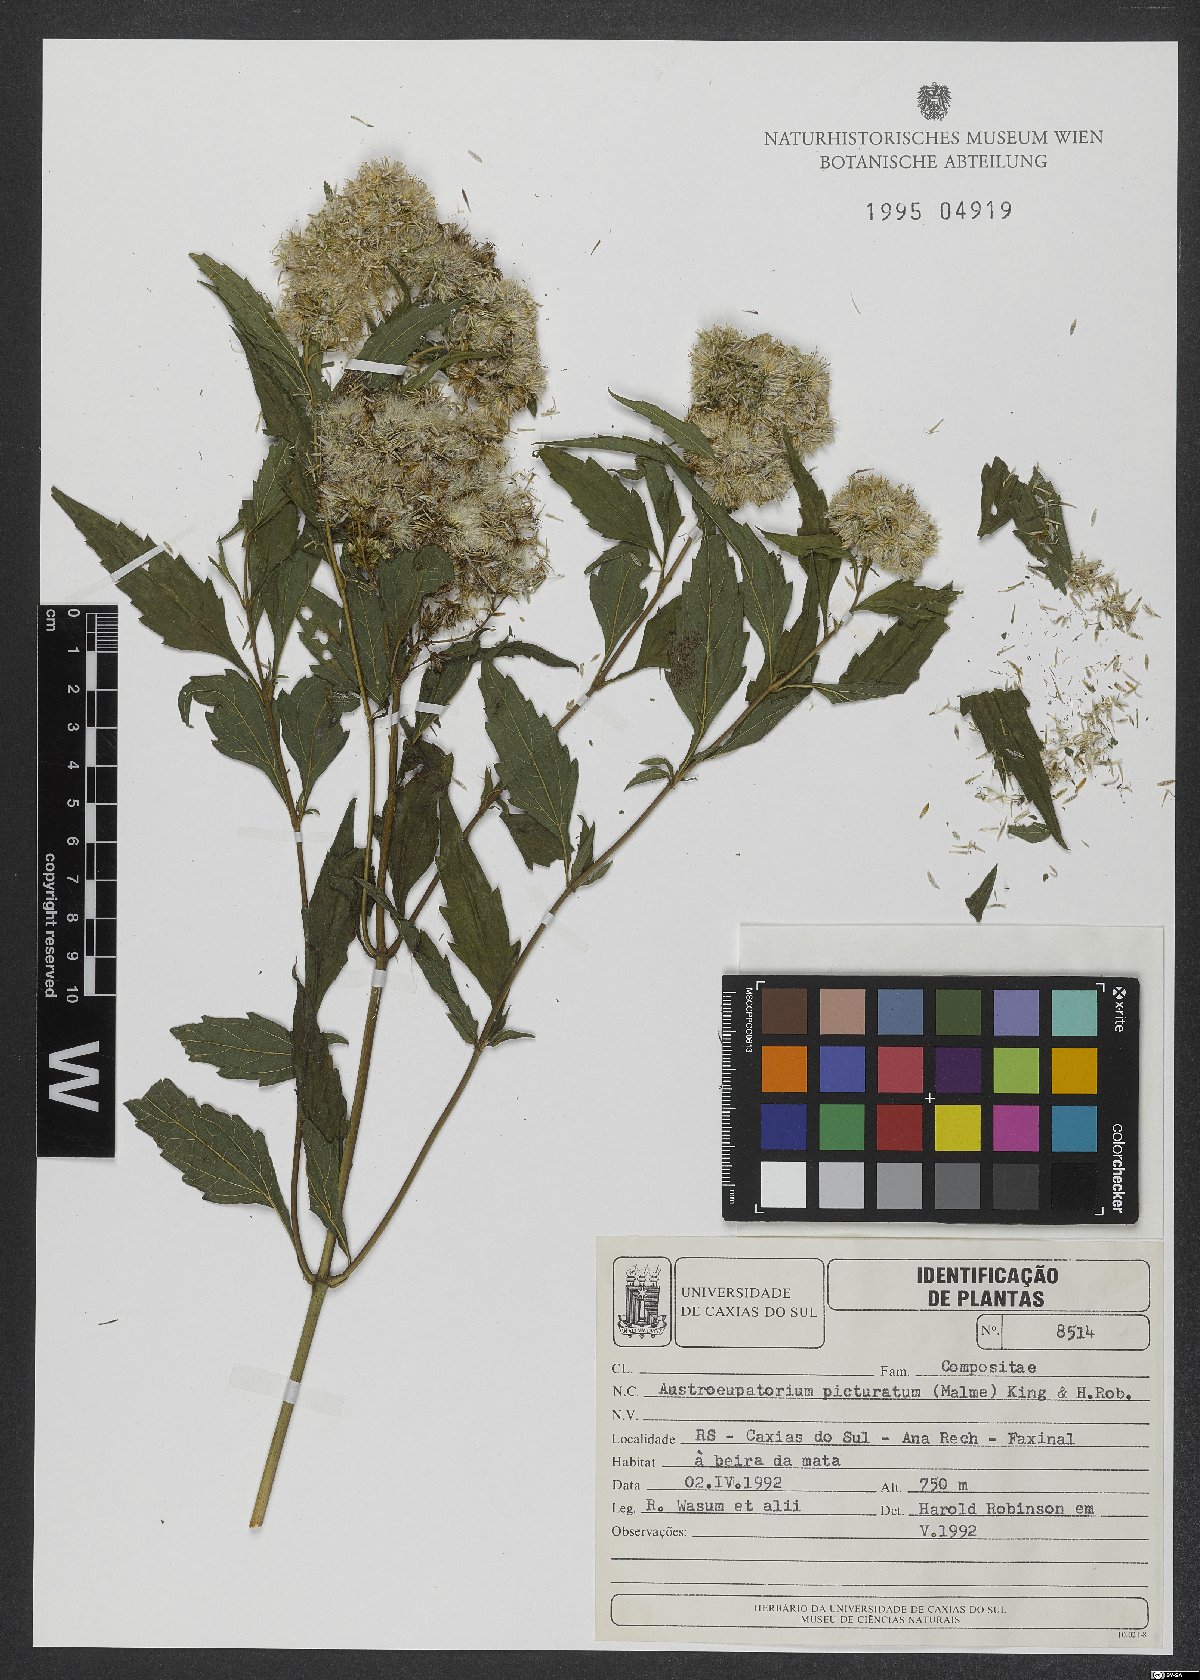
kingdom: Plantae
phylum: Tracheophyta
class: Magnoliopsida
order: Asterales
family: Asteraceae
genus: Austroeupatorium
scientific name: Austroeupatorium picturatum
